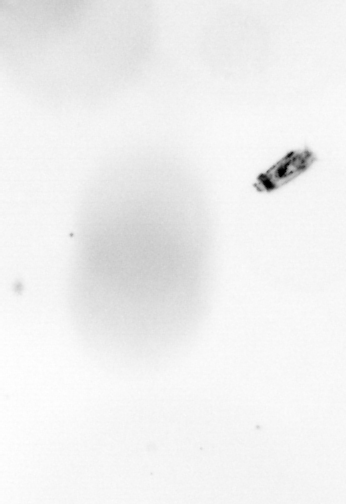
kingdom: Animalia
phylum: Arthropoda
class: Copepoda
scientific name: Copepoda
